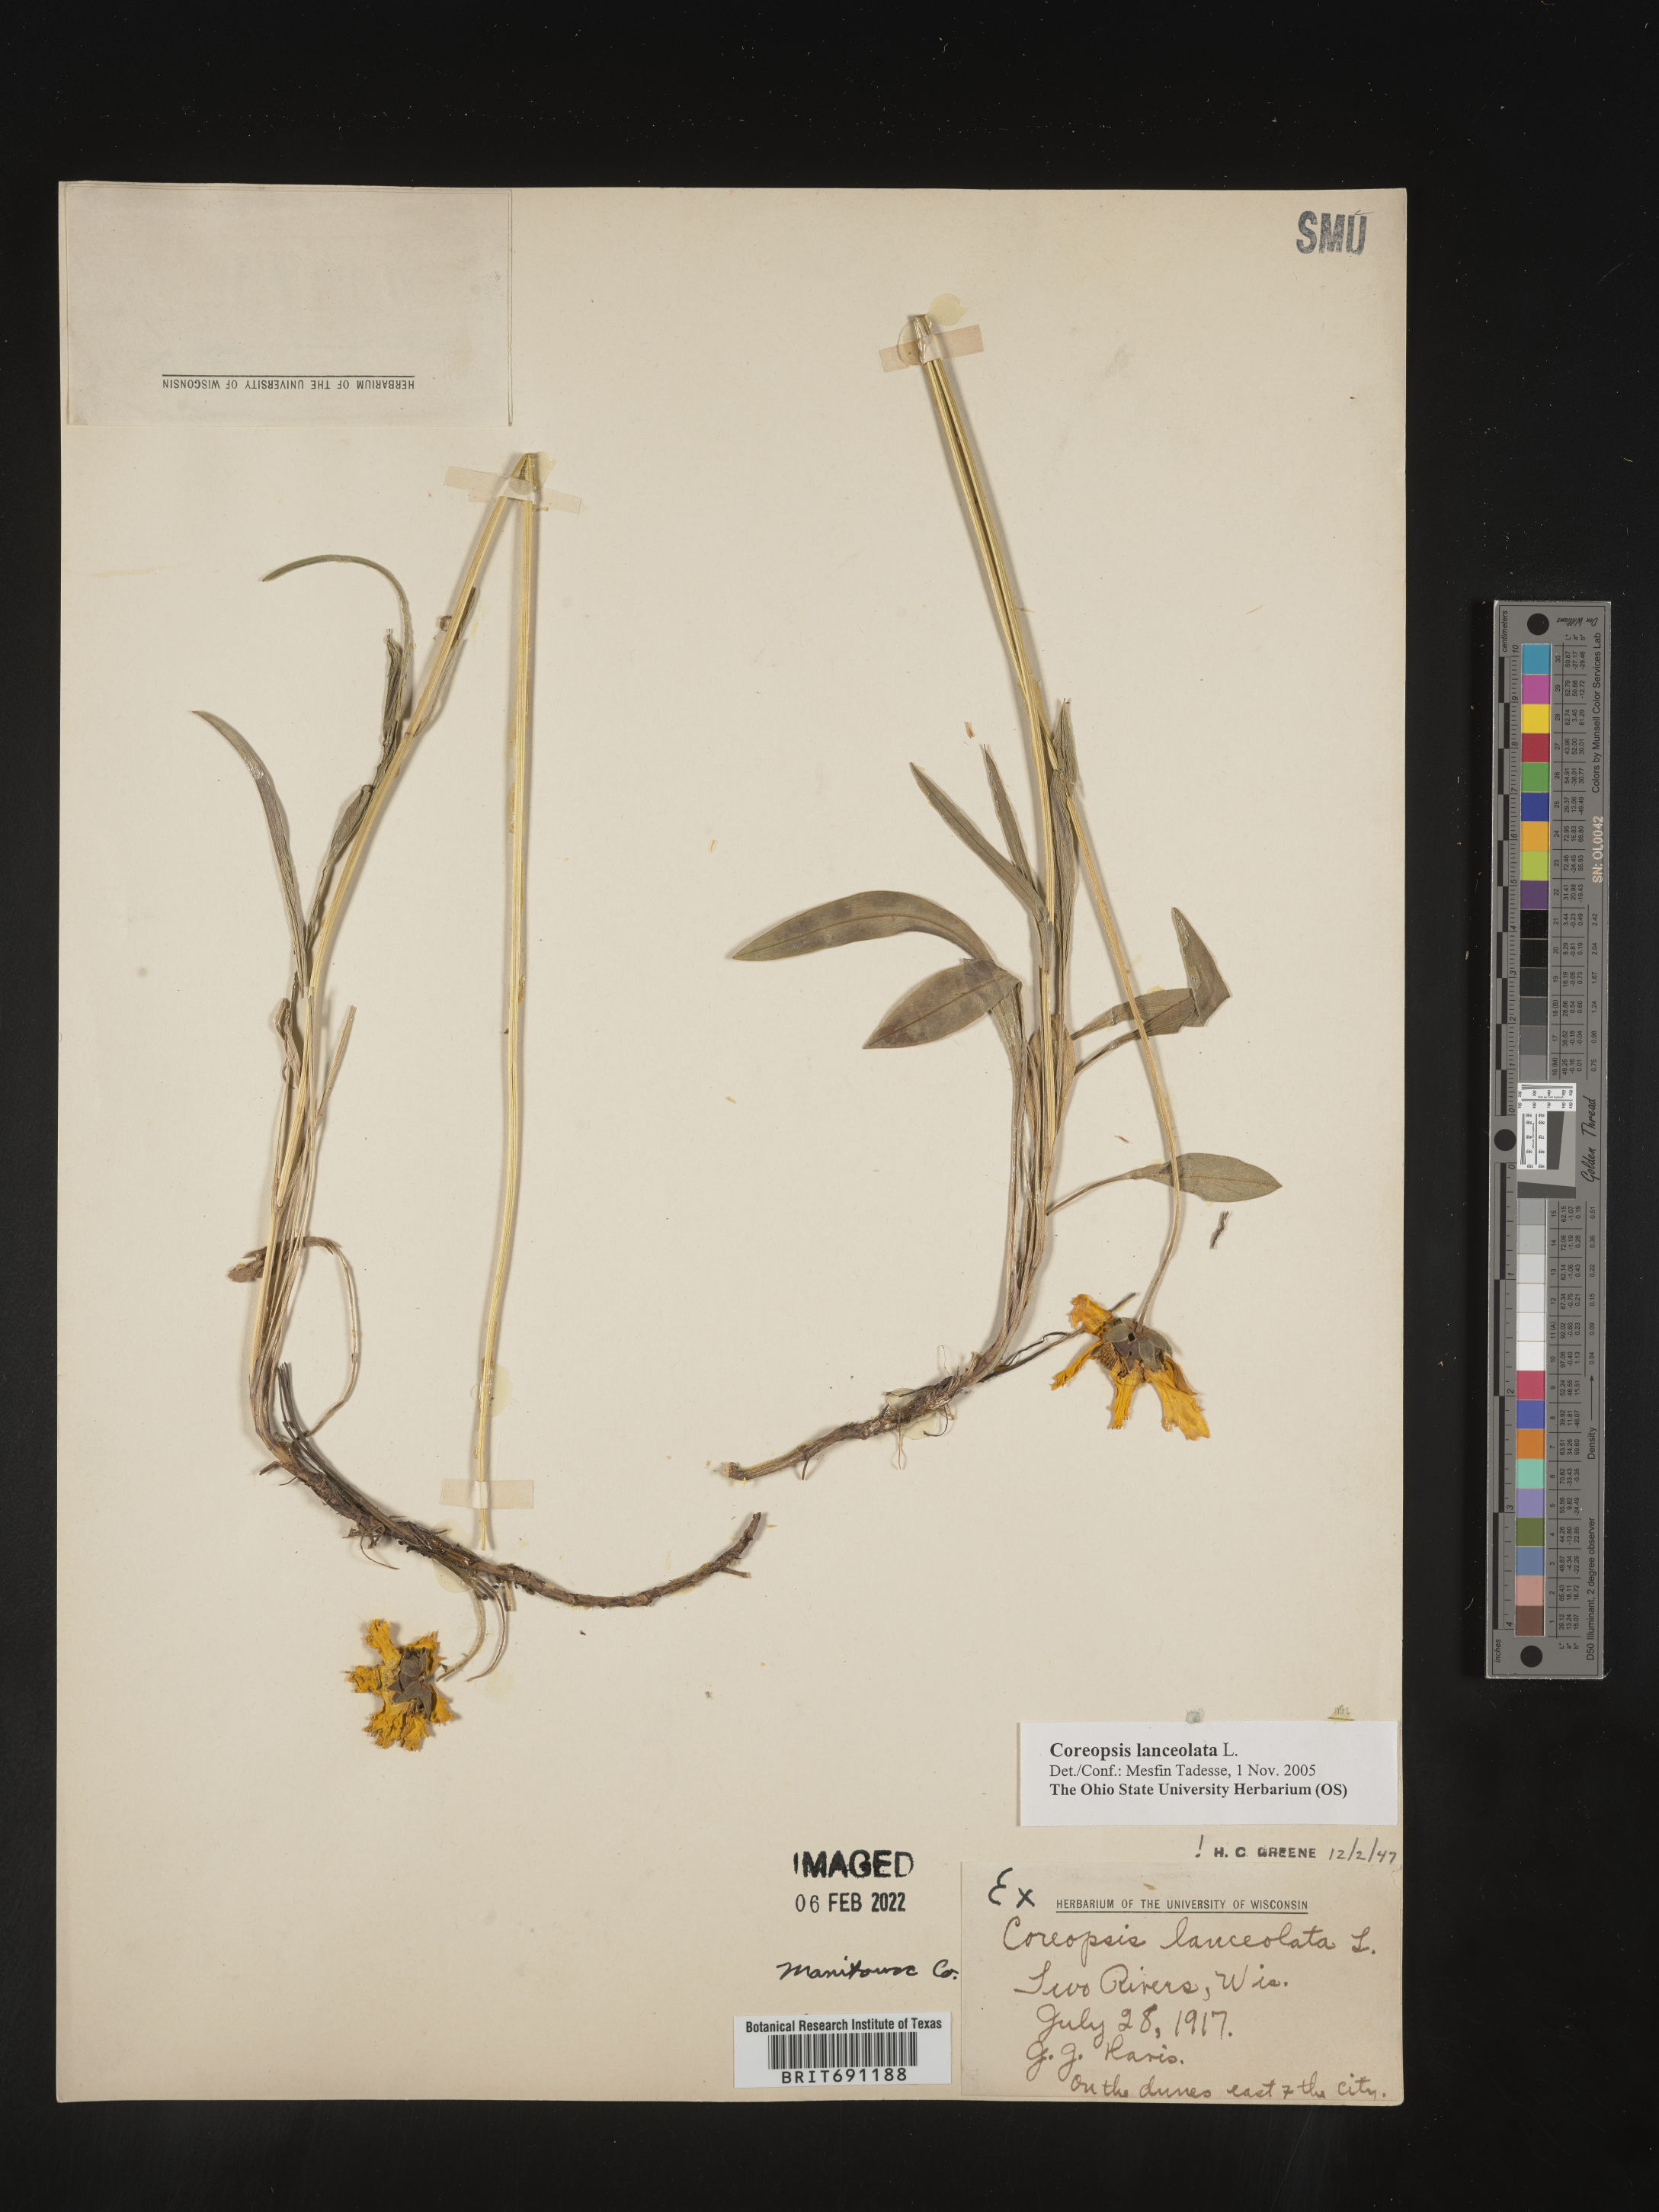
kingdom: Plantae
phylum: Tracheophyta
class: Magnoliopsida
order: Asterales
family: Asteraceae
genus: Coreopsis
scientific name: Coreopsis lanceolata
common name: Garden coreopsis
